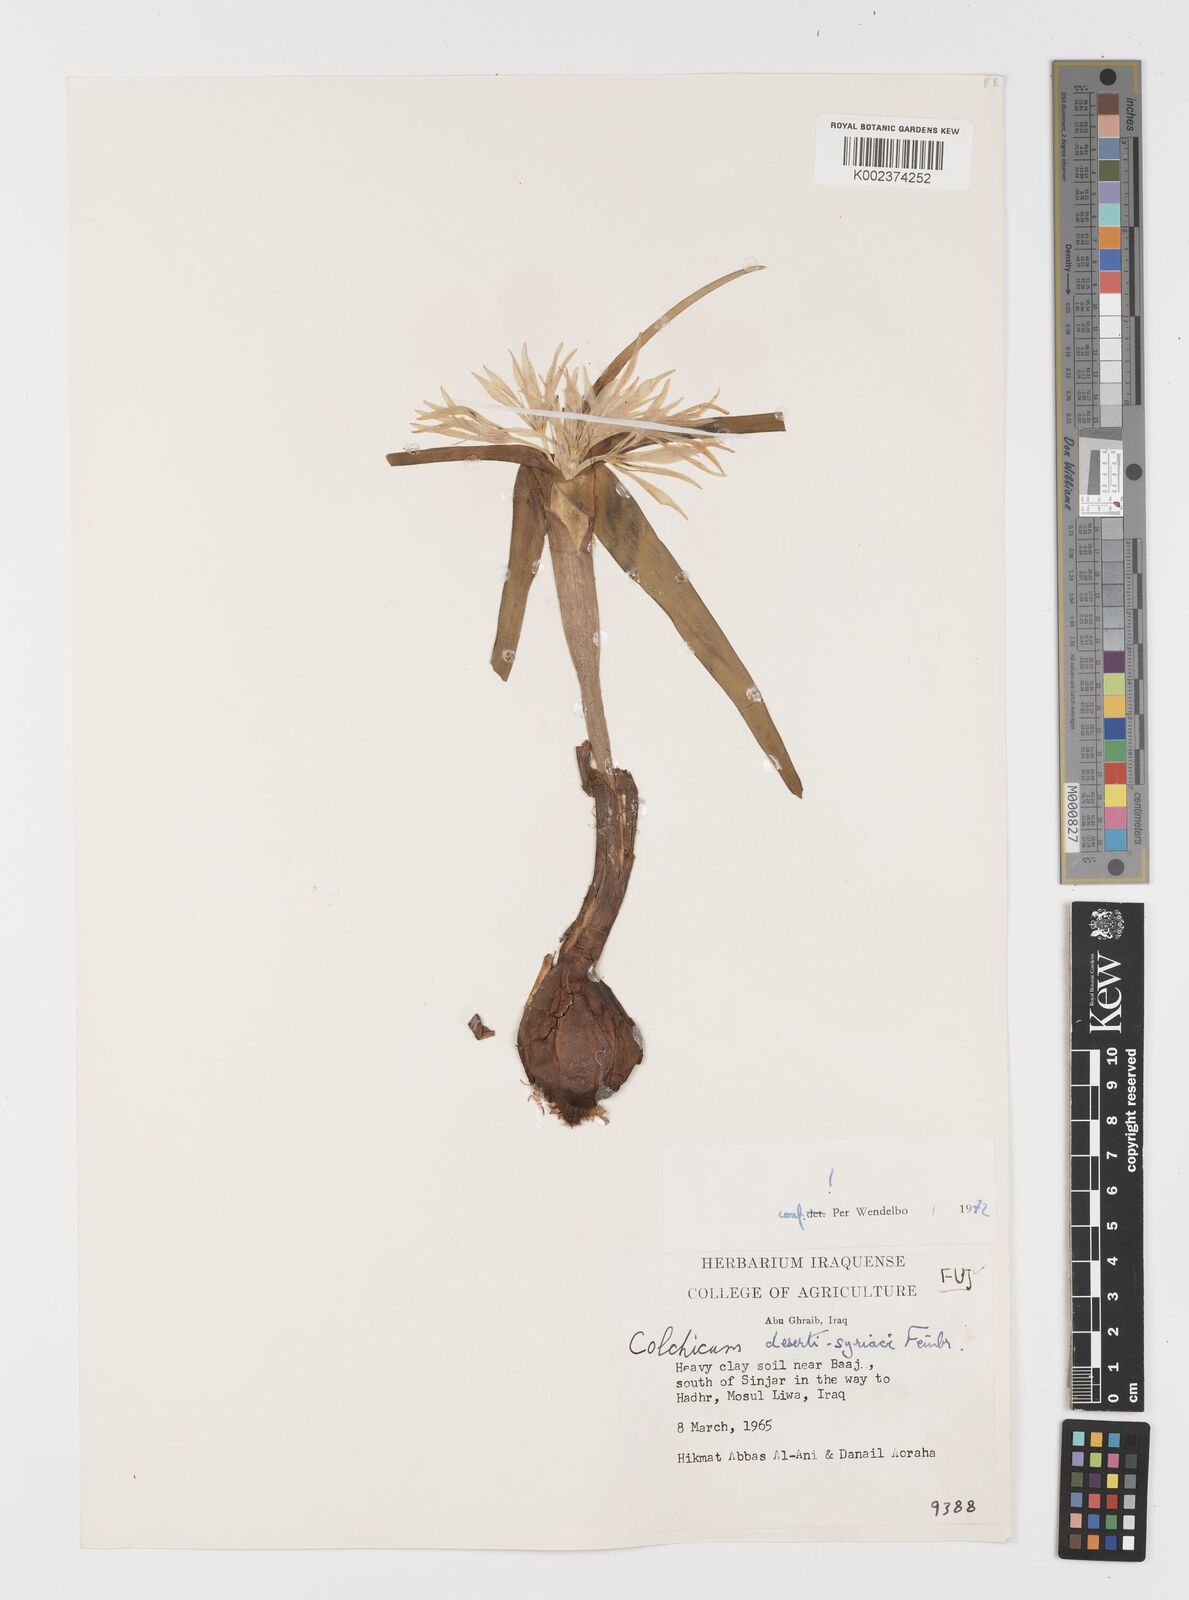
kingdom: Plantae
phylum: Tracheophyta
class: Liliopsida
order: Liliales
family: Colchicaceae
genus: Colchicum
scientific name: Colchicum schimperi
